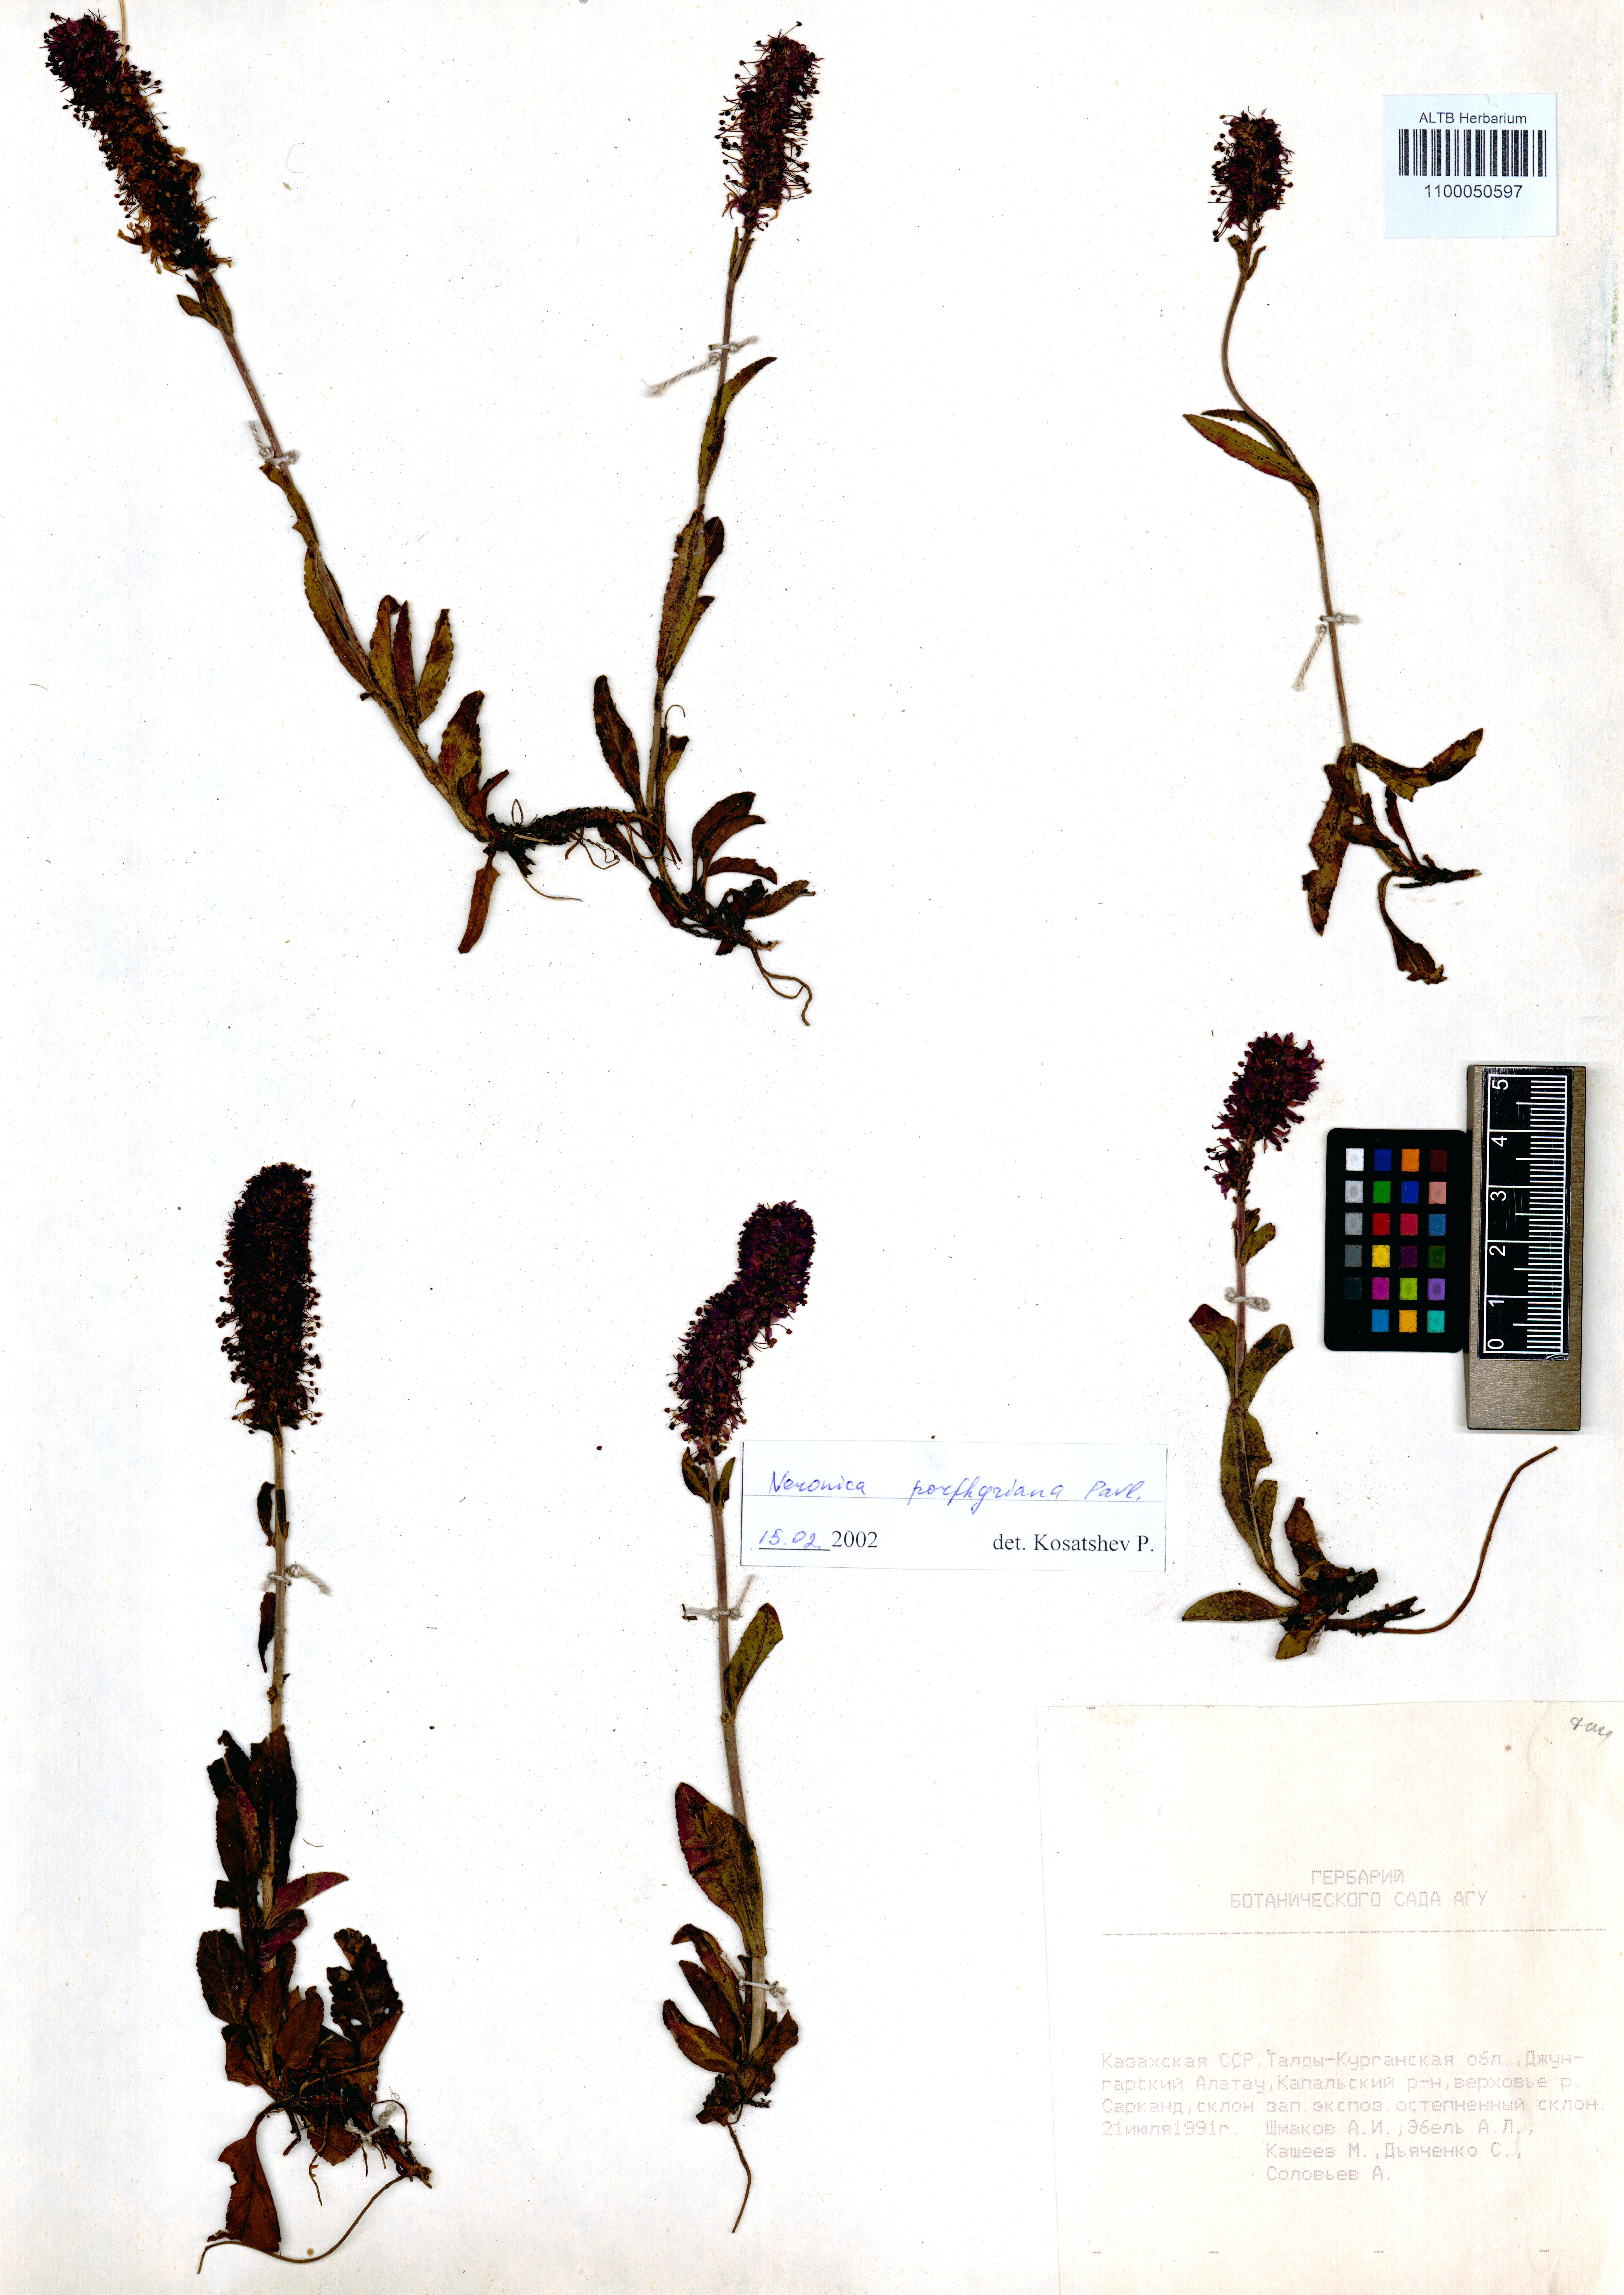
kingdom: Plantae
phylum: Tracheophyta
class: Magnoliopsida
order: Lamiales
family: Plantaginaceae
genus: Veronica
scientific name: Veronica porphyriana
